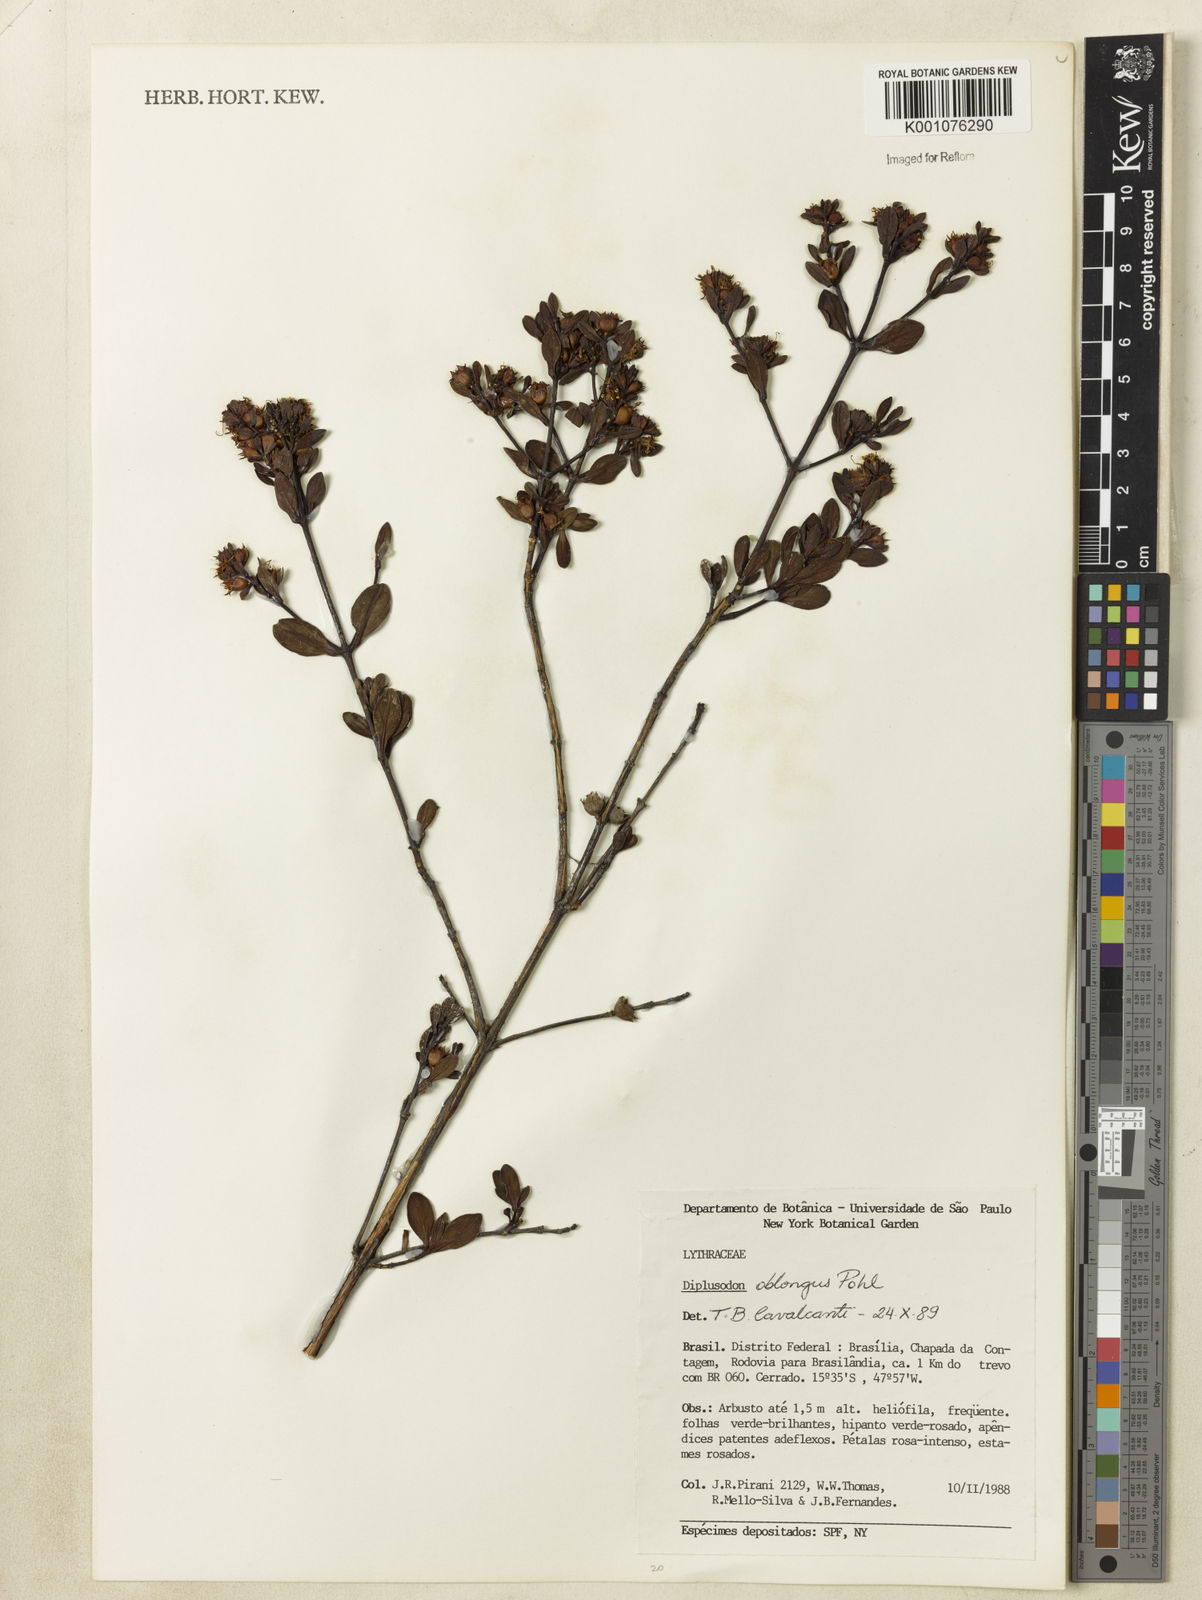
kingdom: Plantae
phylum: Tracheophyta
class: Magnoliopsida
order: Myrtales
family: Lythraceae
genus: Diplusodon
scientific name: Diplusodon oblongus
